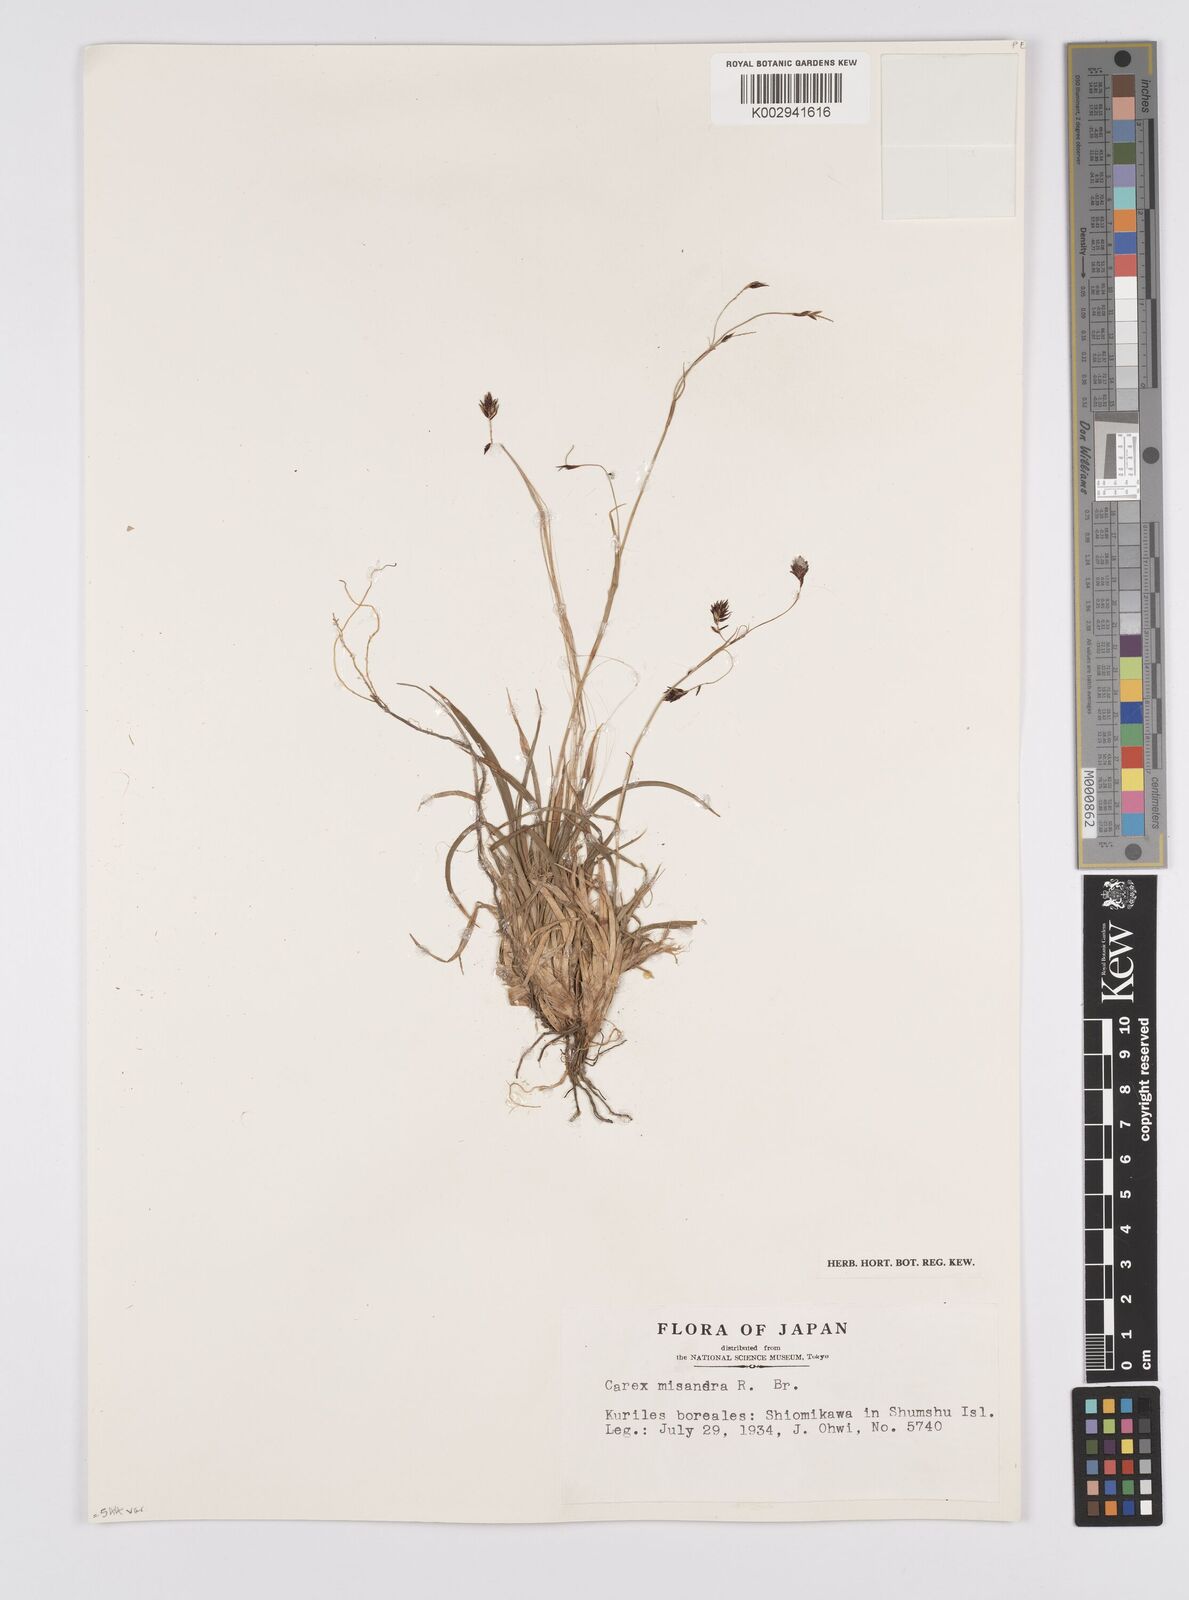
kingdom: Plantae
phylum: Tracheophyta
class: Liliopsida
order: Poales
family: Cyperaceae
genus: Carex
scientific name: Carex fuliginosa
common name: Few-flowered sedge
